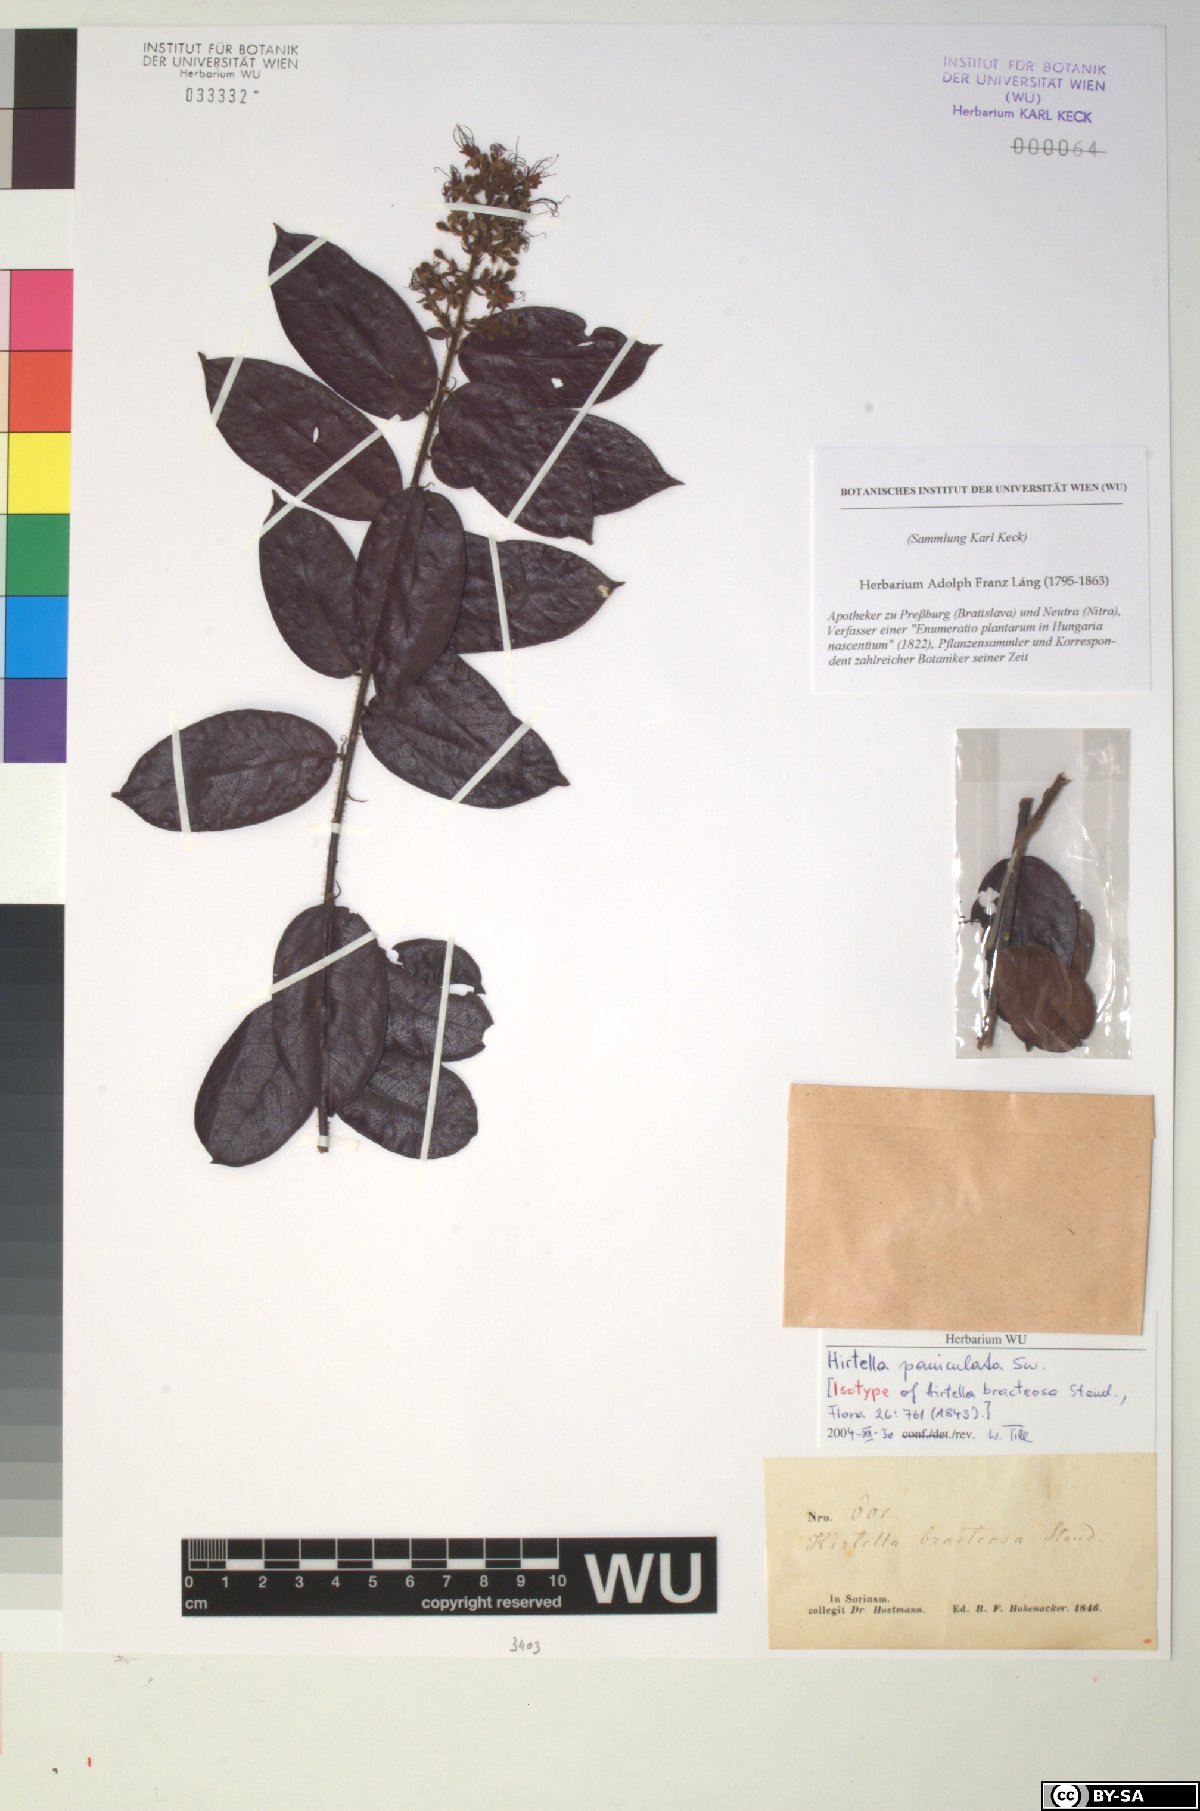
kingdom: Plantae
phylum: Tracheophyta
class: Magnoliopsida
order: Malpighiales
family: Chrysobalanaceae
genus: Hirtella
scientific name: Hirtella paniculata
